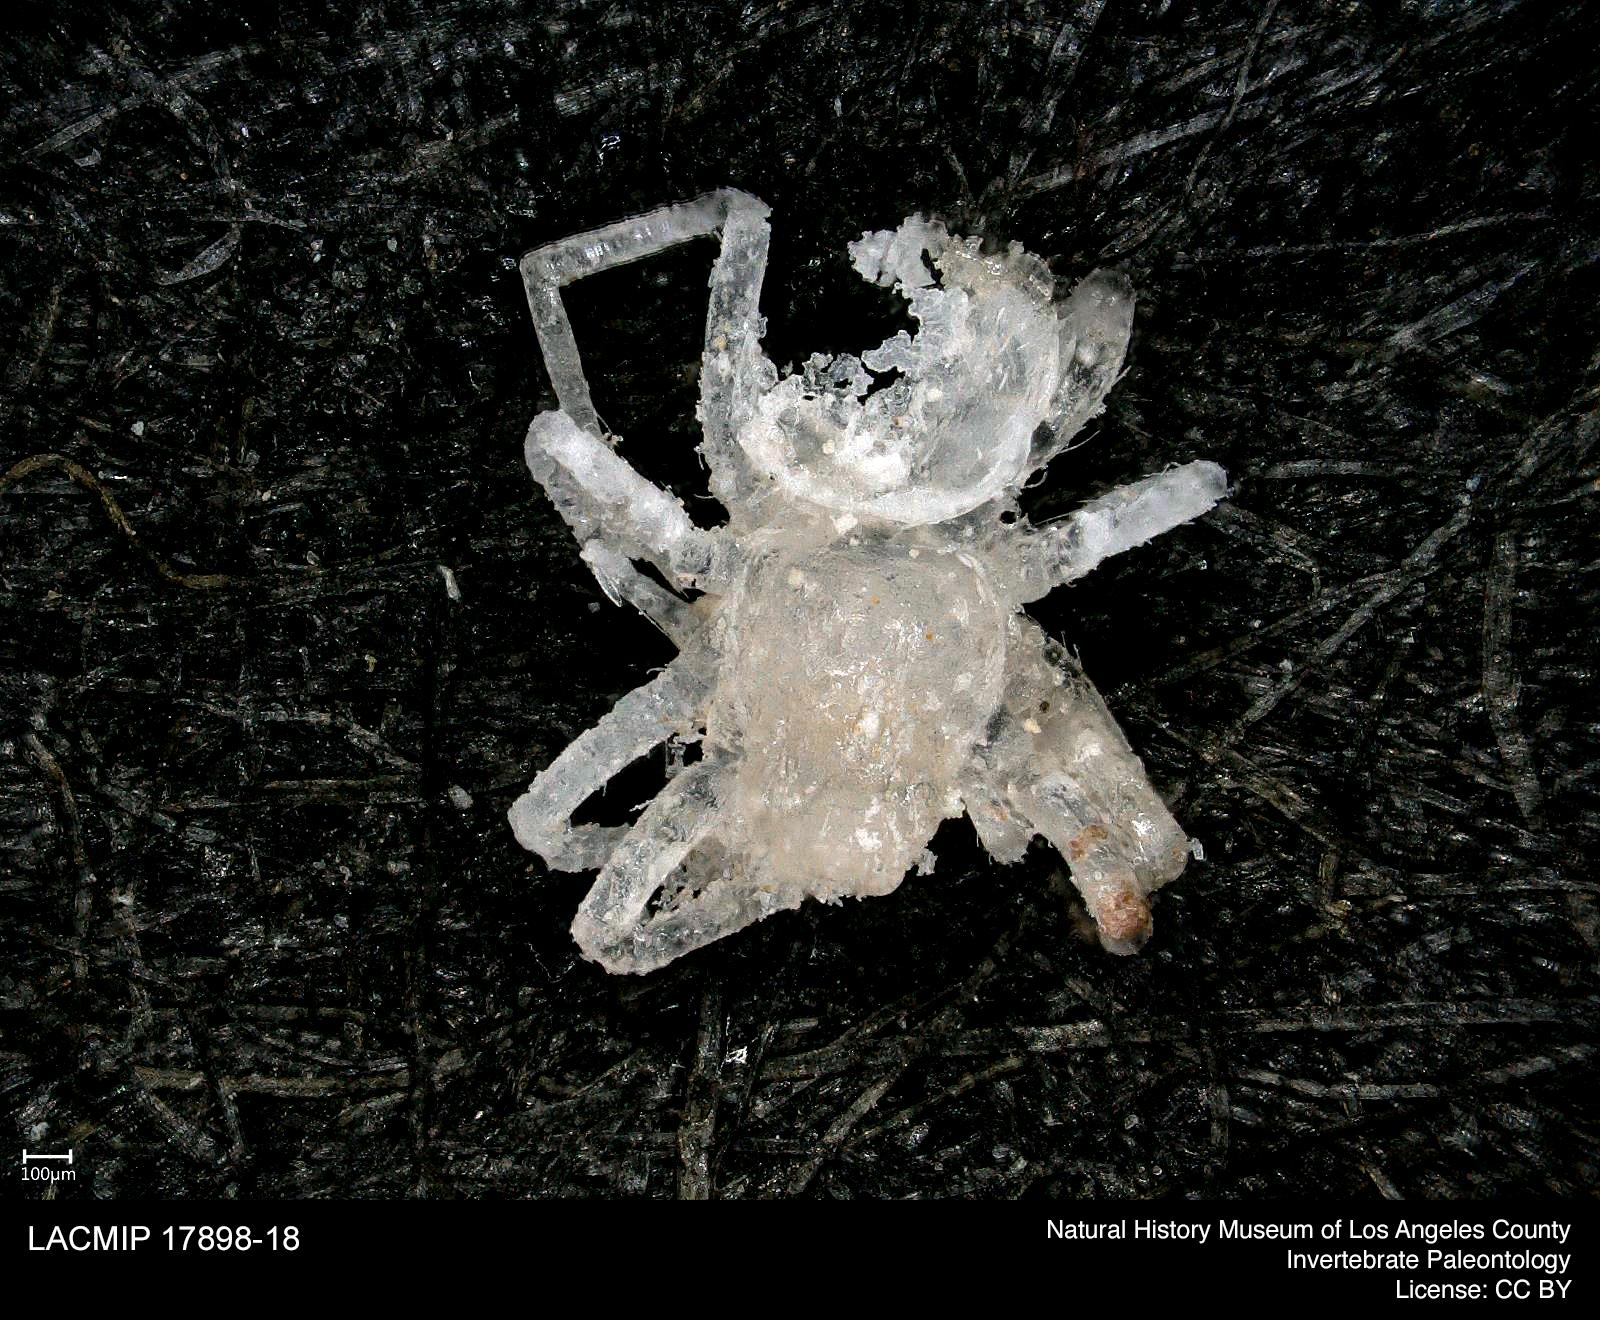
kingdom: Animalia
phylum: Arthropoda
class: Arachnida
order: Araneae
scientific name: Araneae
